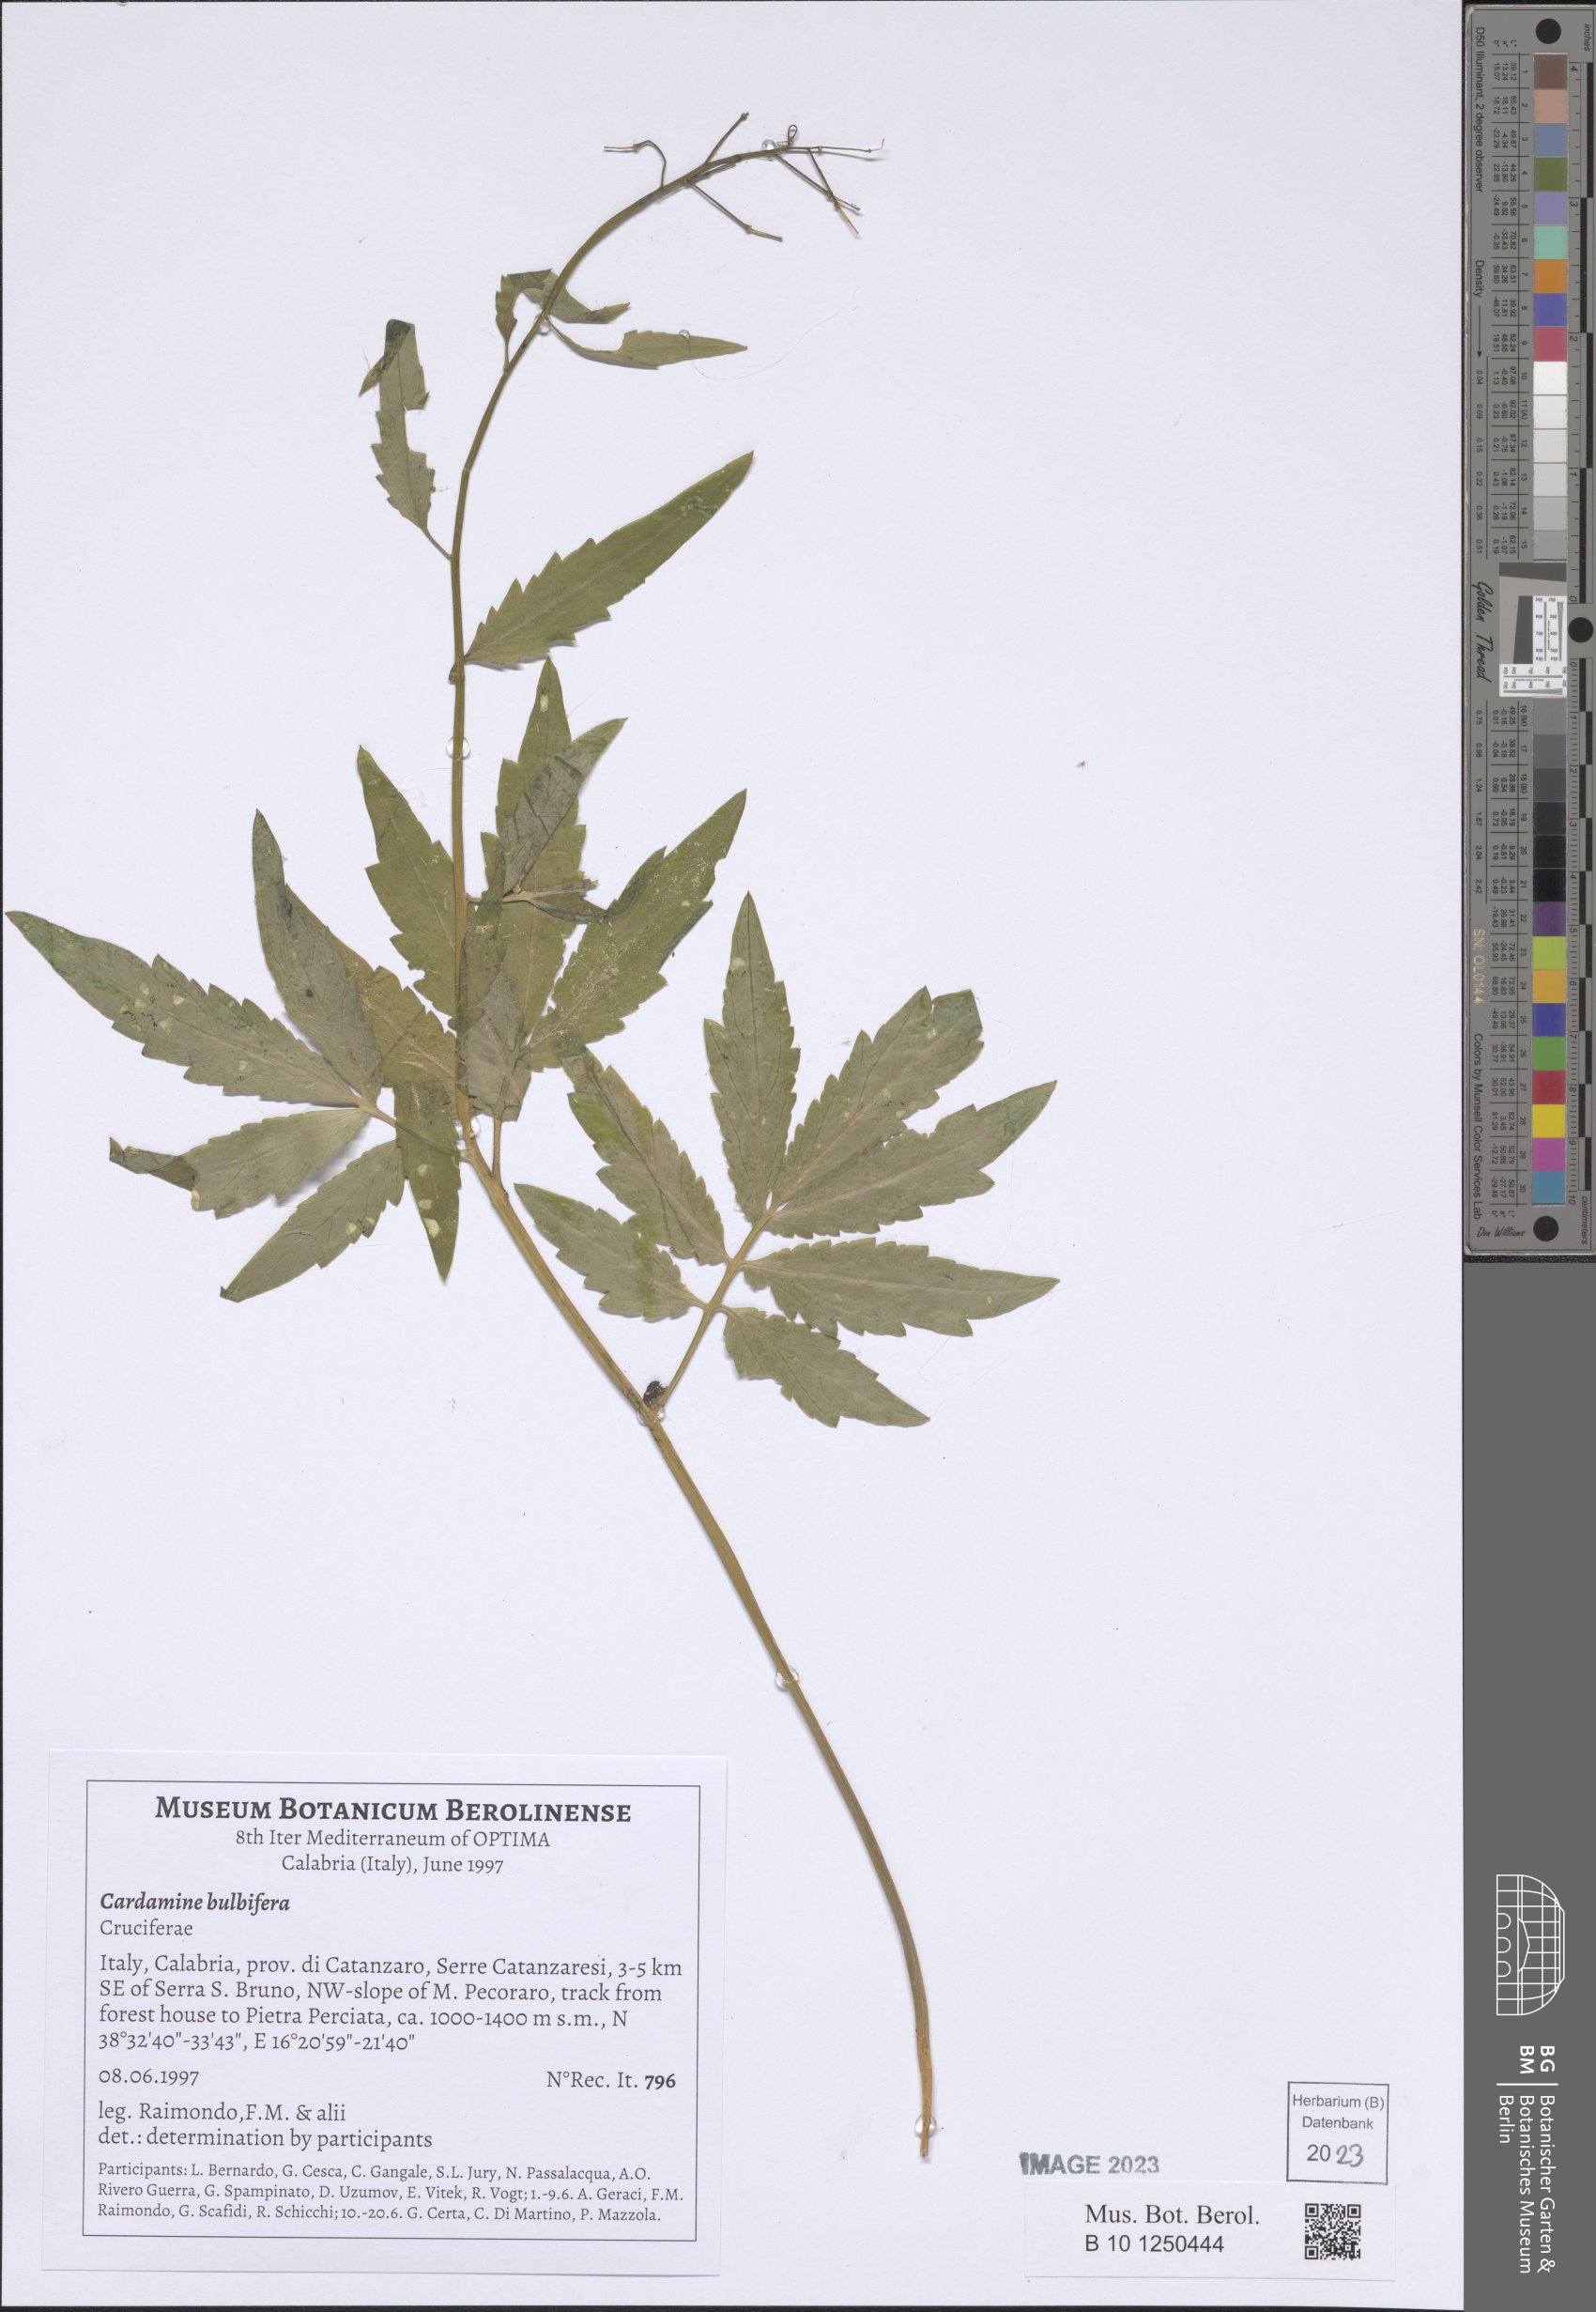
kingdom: Plantae
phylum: Tracheophyta
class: Magnoliopsida
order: Brassicales
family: Brassicaceae
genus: Cardamine
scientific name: Cardamine bulbifera
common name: Coralroot bittercress
